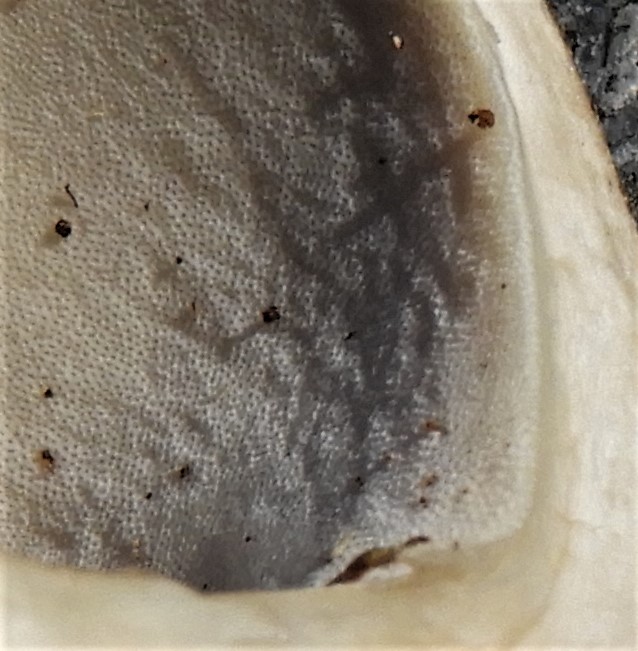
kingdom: Fungi
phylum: Basidiomycota
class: Agaricomycetes
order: Polyporales
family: Polyporaceae
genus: Lentinus
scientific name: Lentinus substrictus
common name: forårs-stilkporesvamp
